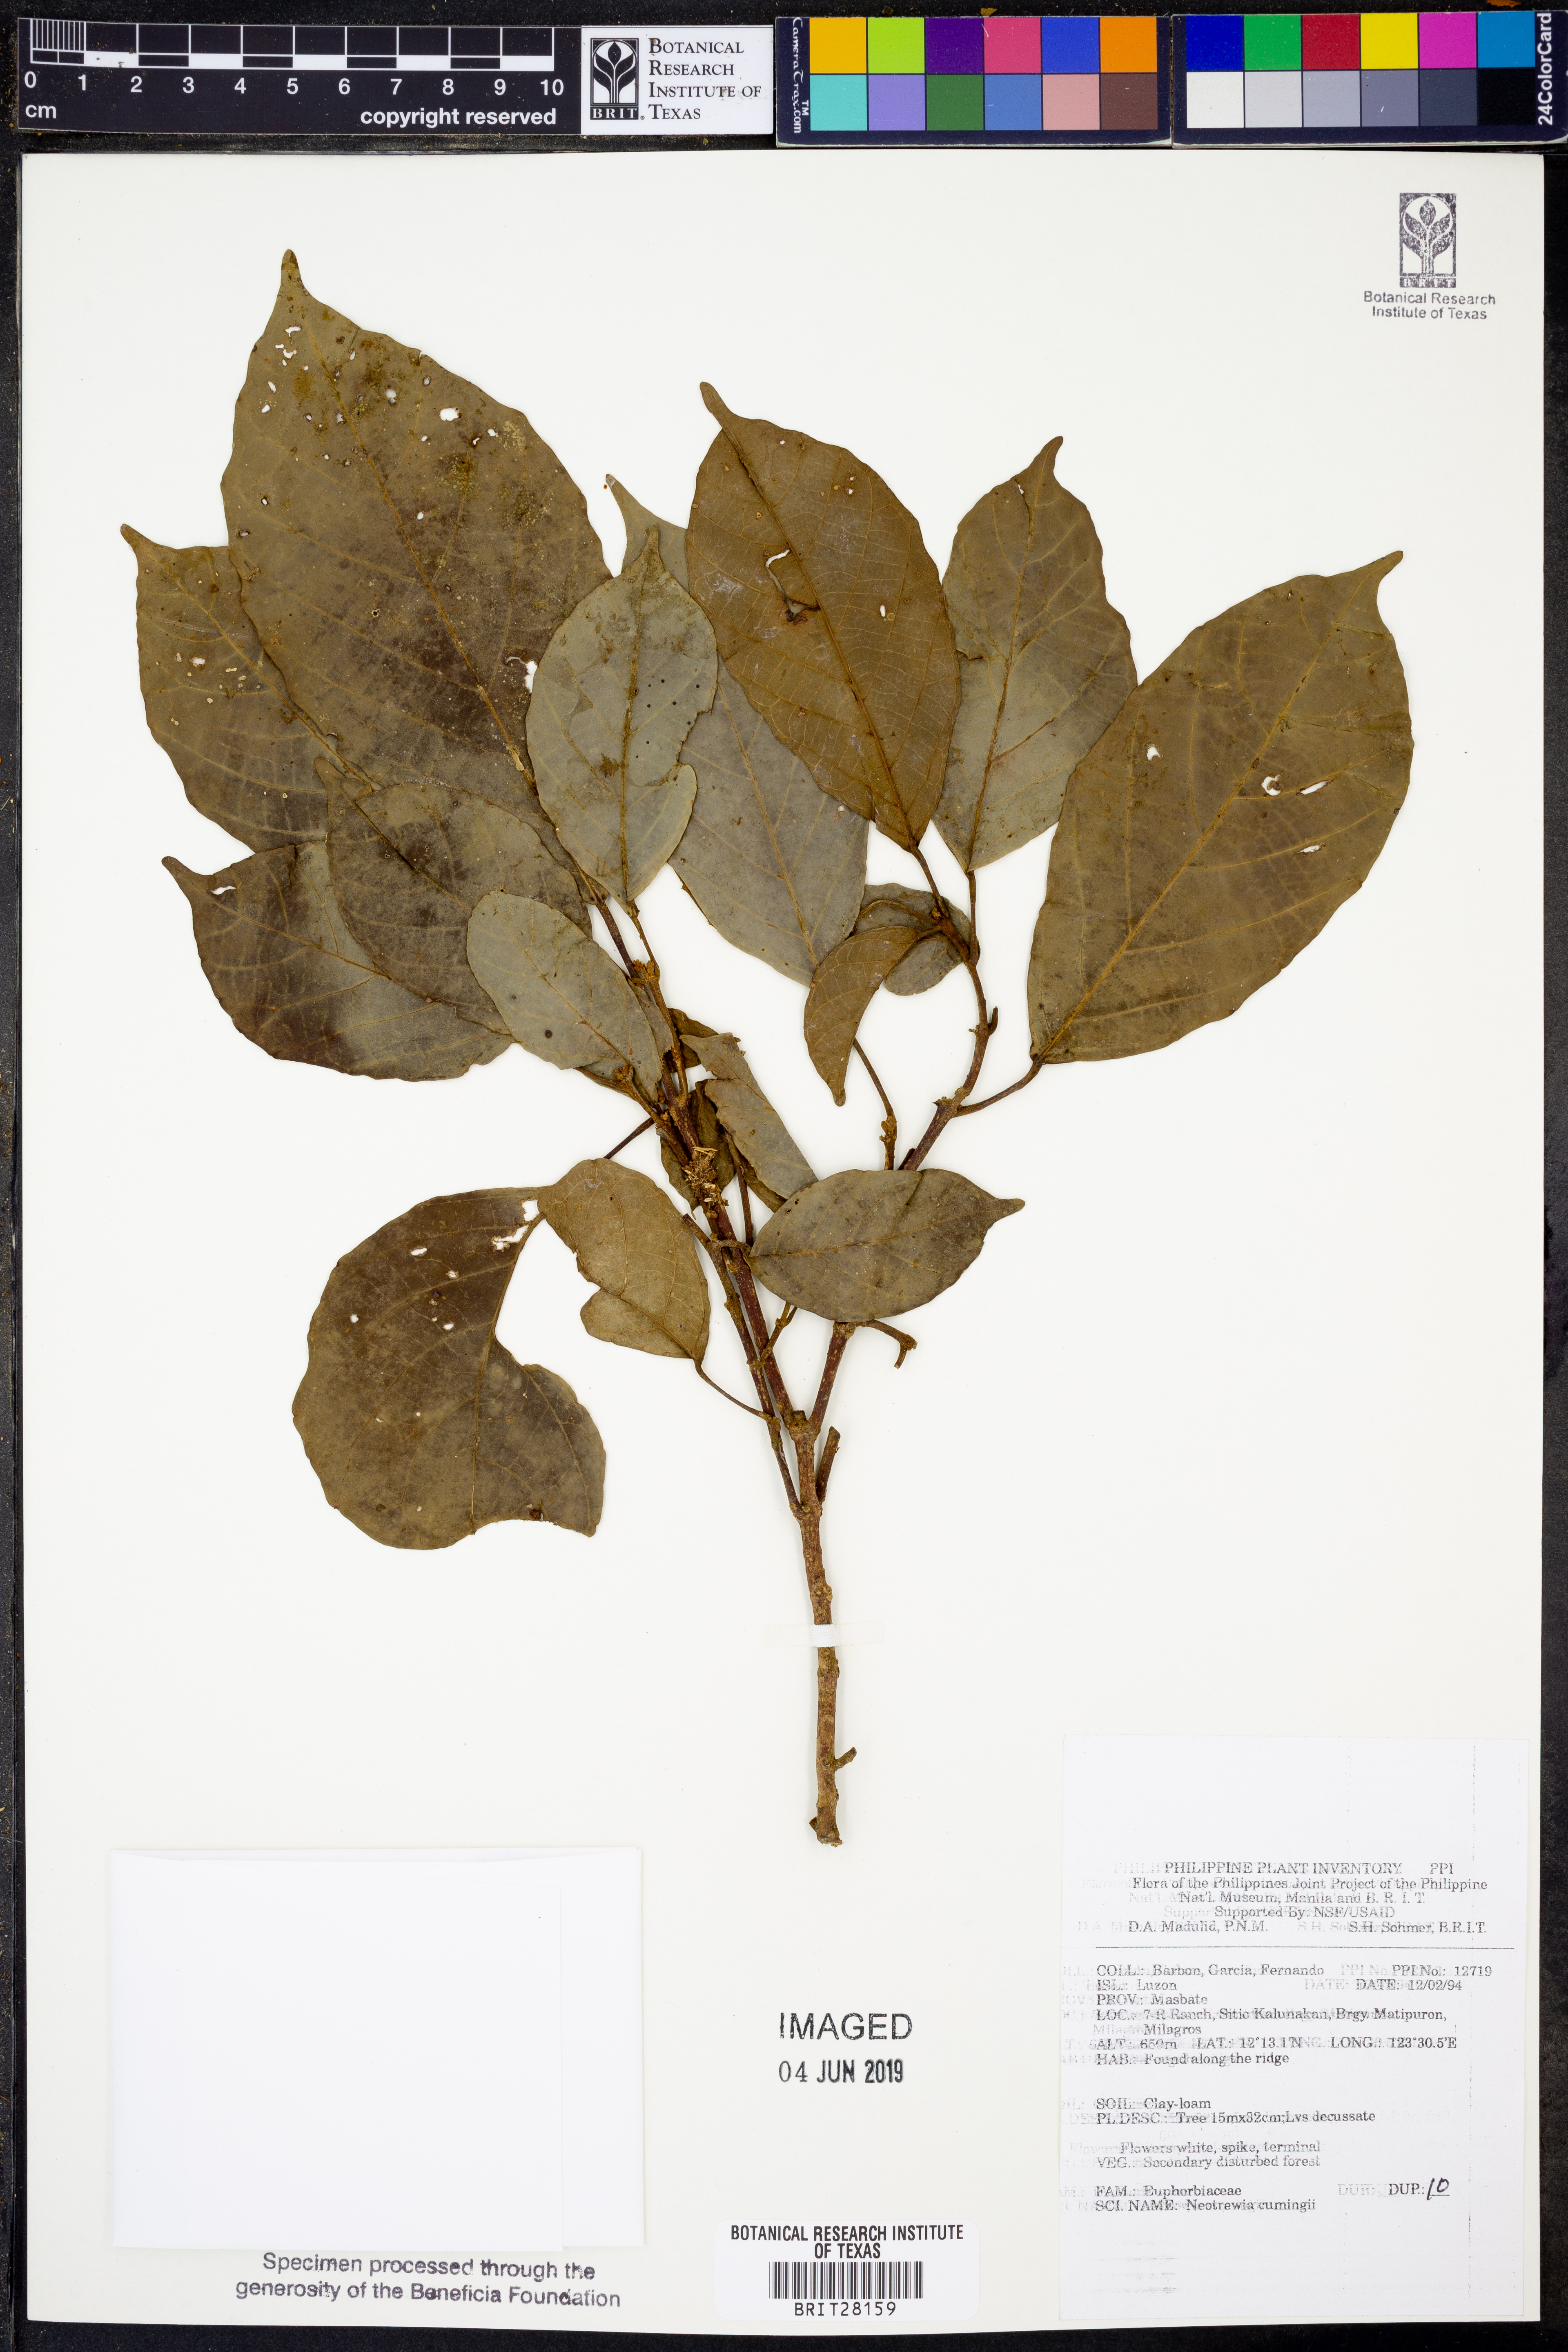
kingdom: Plantae
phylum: Tracheophyta
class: Magnoliopsida
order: Malpighiales
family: Euphorbiaceae
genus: Mallotus
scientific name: Mallotus cumingii
